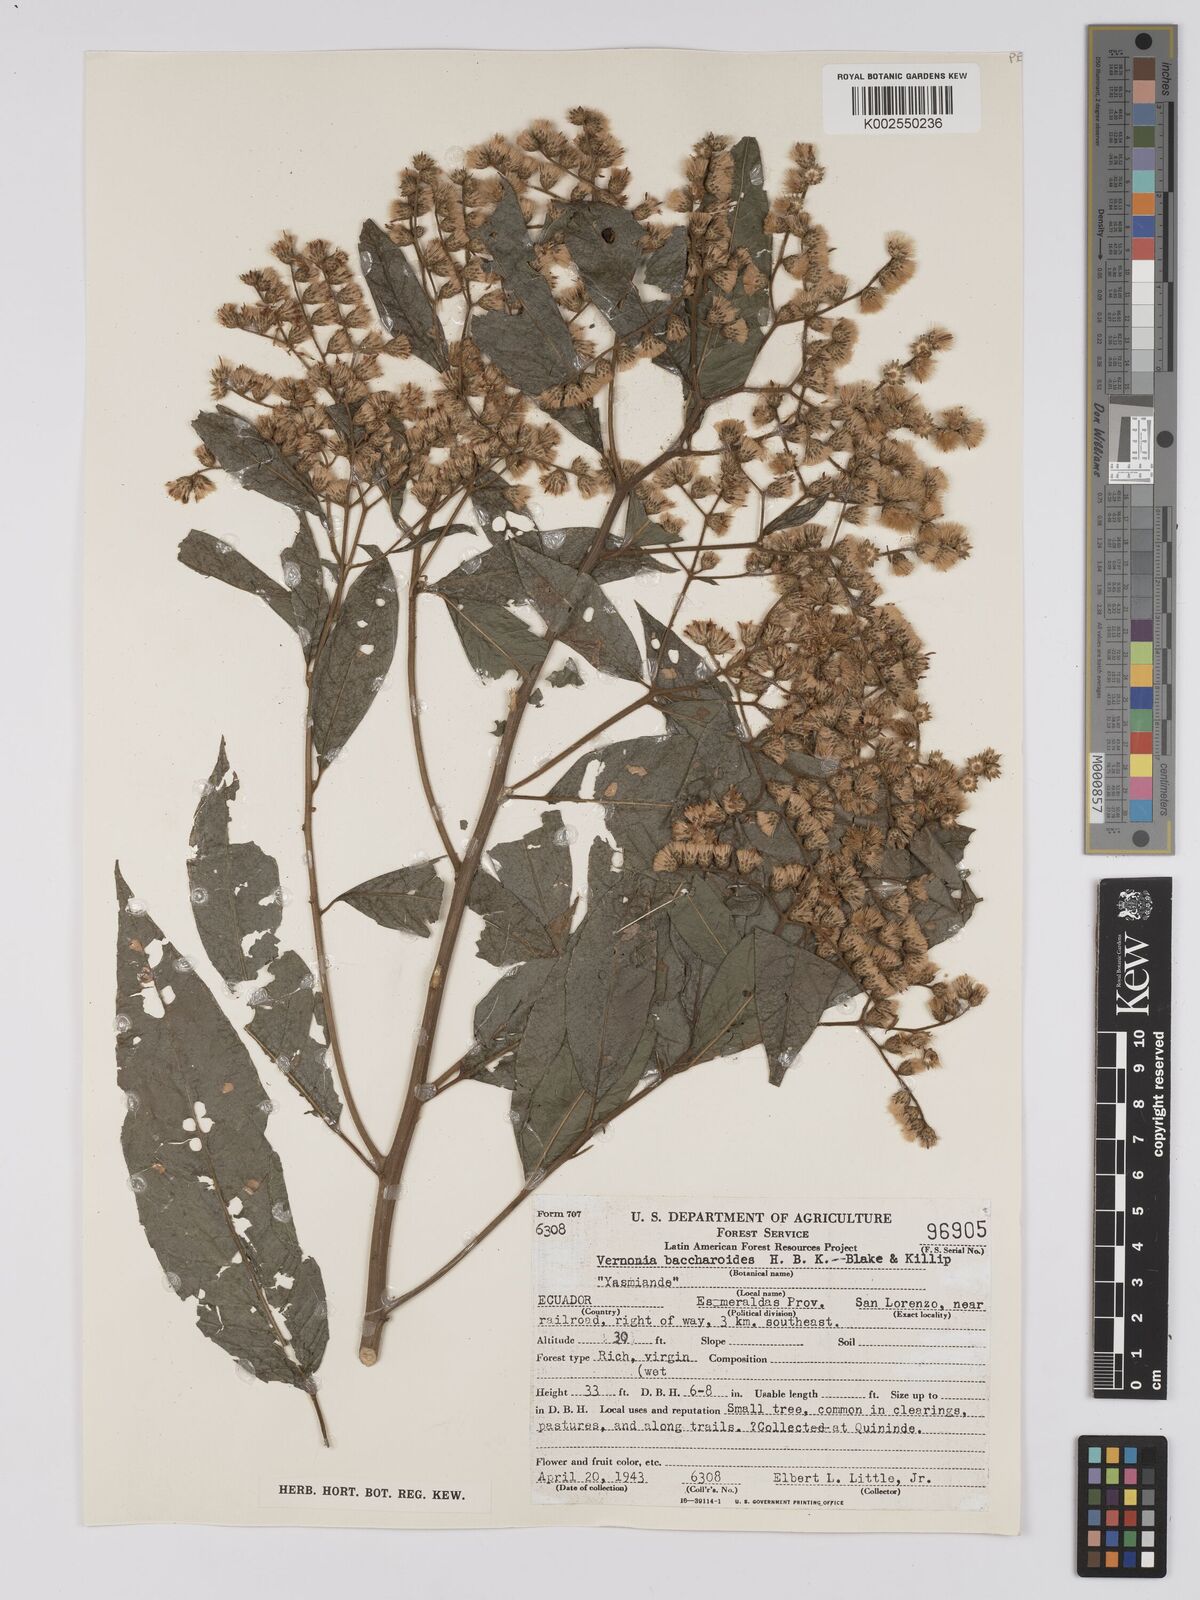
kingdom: Plantae
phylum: Tracheophyta
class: Magnoliopsida
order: Asterales
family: Asteraceae
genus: Vernonanthura
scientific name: Vernonanthura patens
